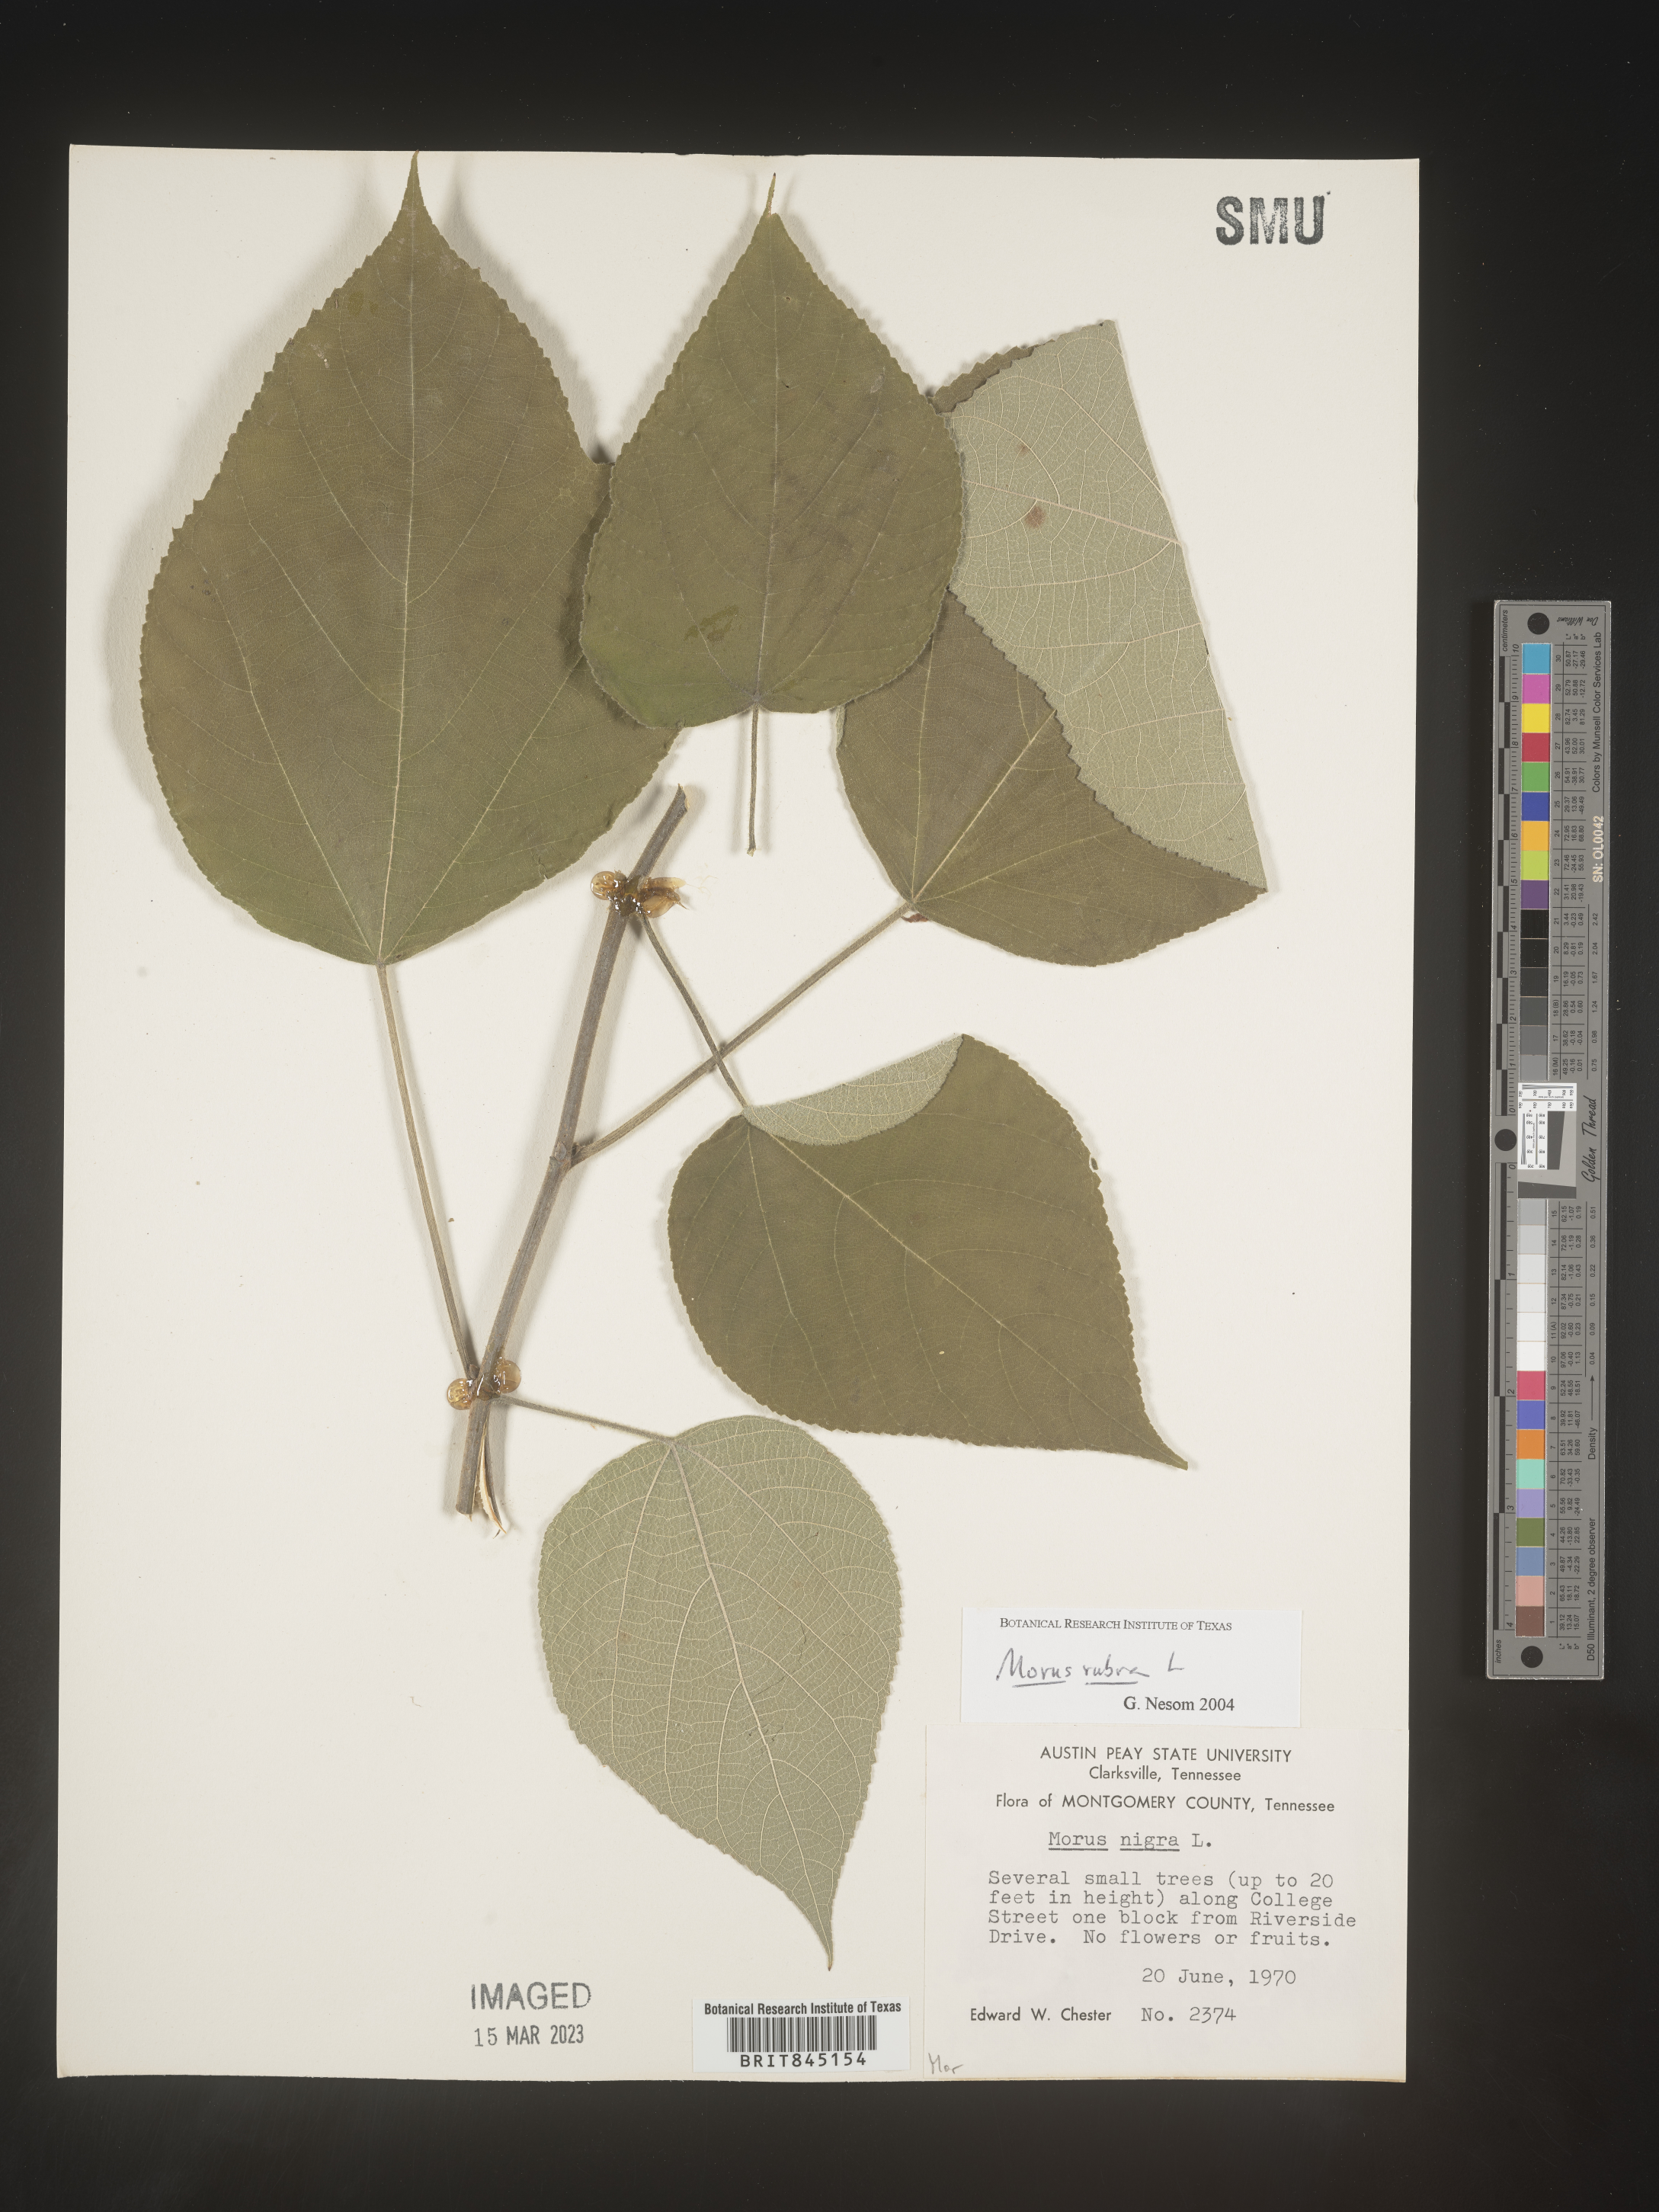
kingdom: Plantae
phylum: Tracheophyta
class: Magnoliopsida
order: Rosales
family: Moraceae
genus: Morus
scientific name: Morus rubra
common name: Red mulberry
